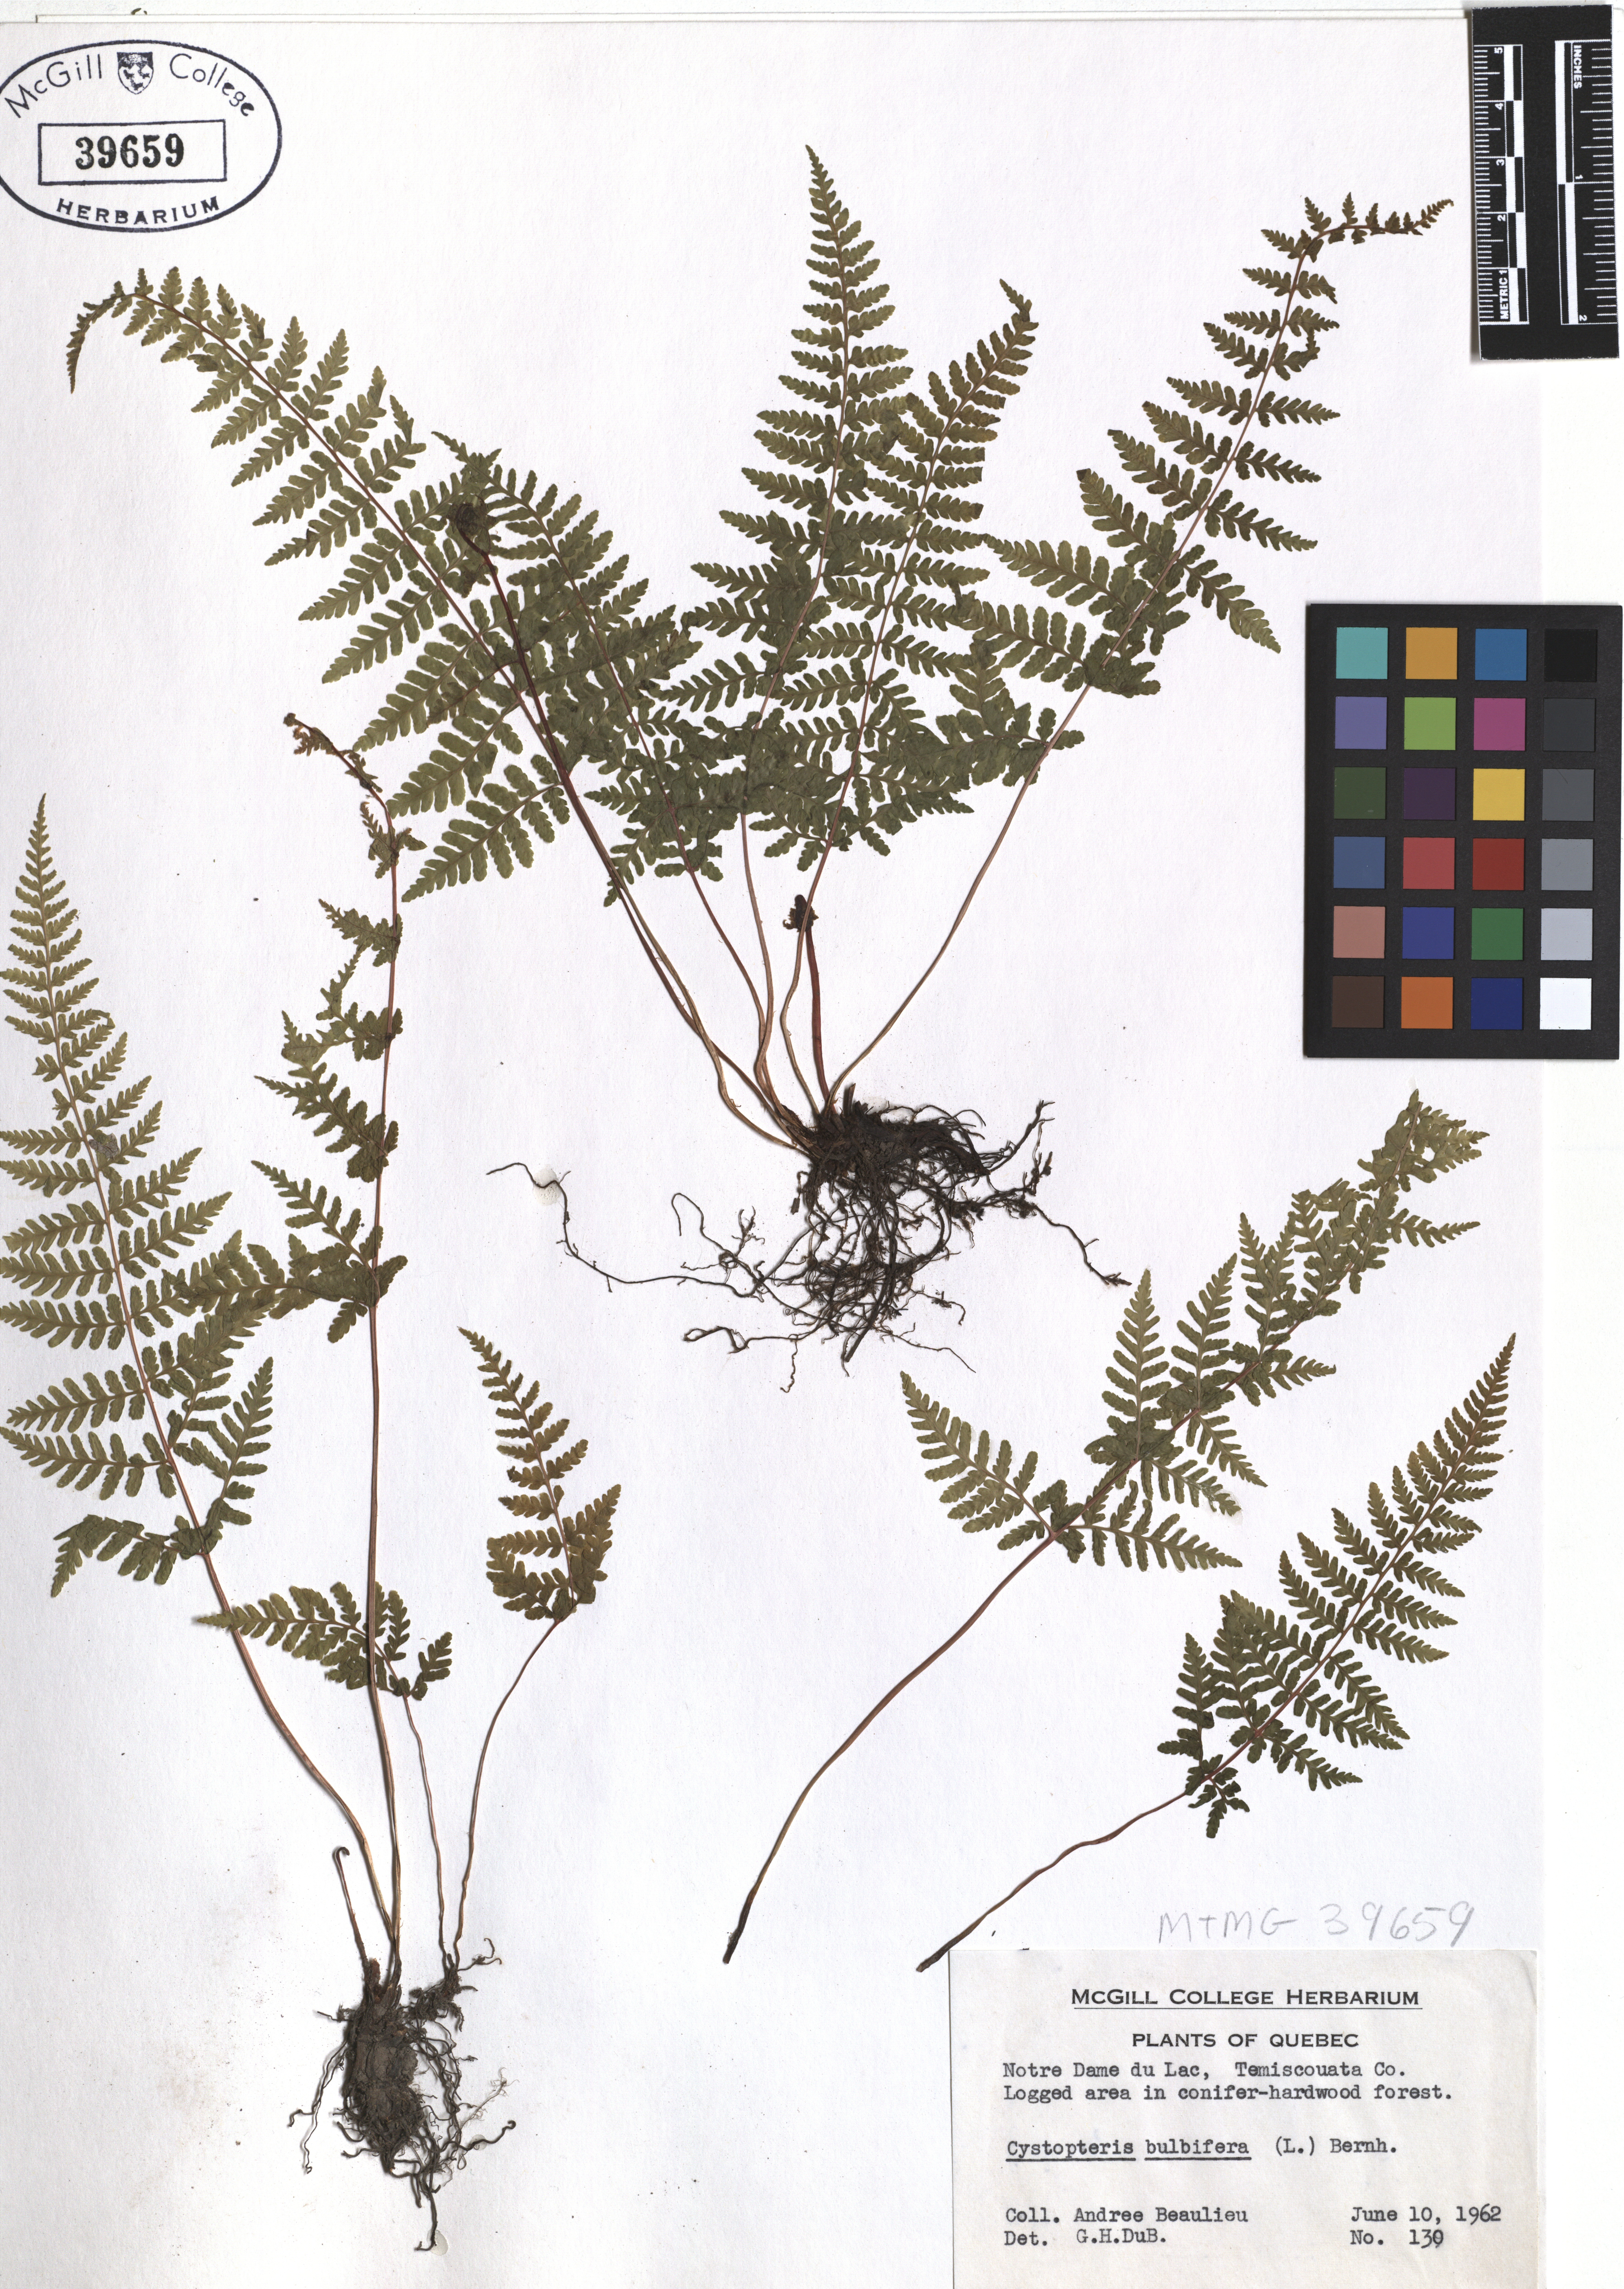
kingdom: Plantae
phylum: Tracheophyta
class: Polypodiopsida
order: Polypodiales
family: Cystopteridaceae
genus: Cystopteris
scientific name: Cystopteris bulbifera
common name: Bulblet bladder fern
